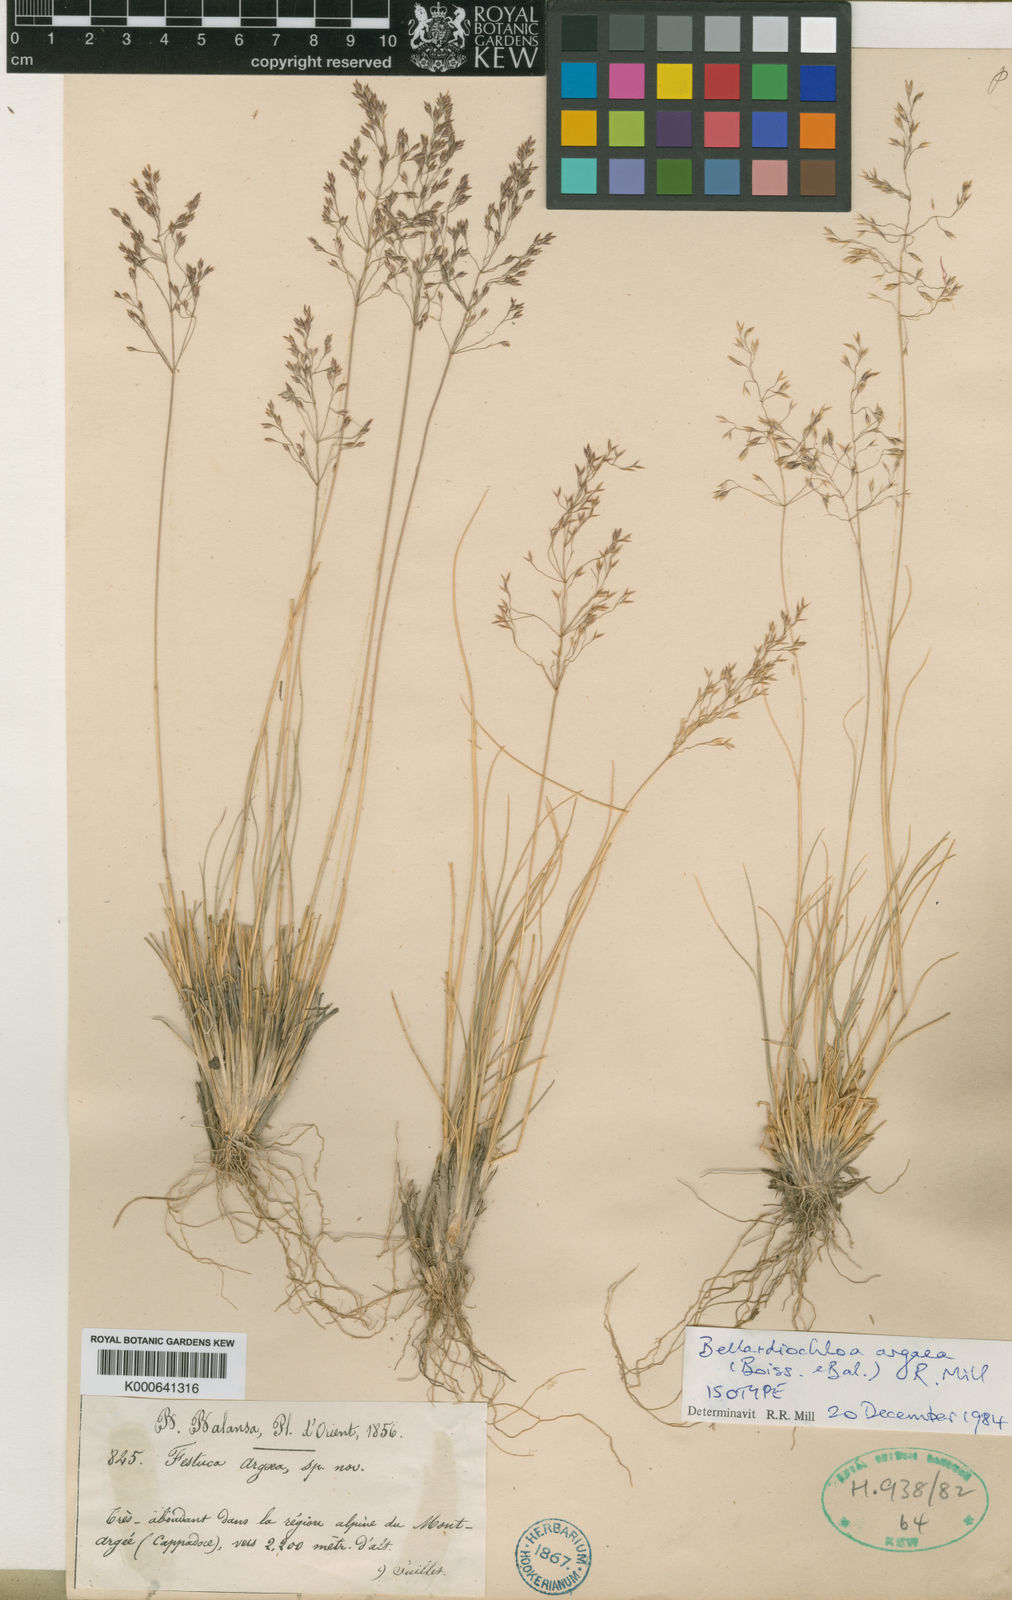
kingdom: Plantae
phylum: Tracheophyta
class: Liliopsida
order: Poales
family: Poaceae
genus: Bellardiochloa
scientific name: Bellardiochloa argaea
